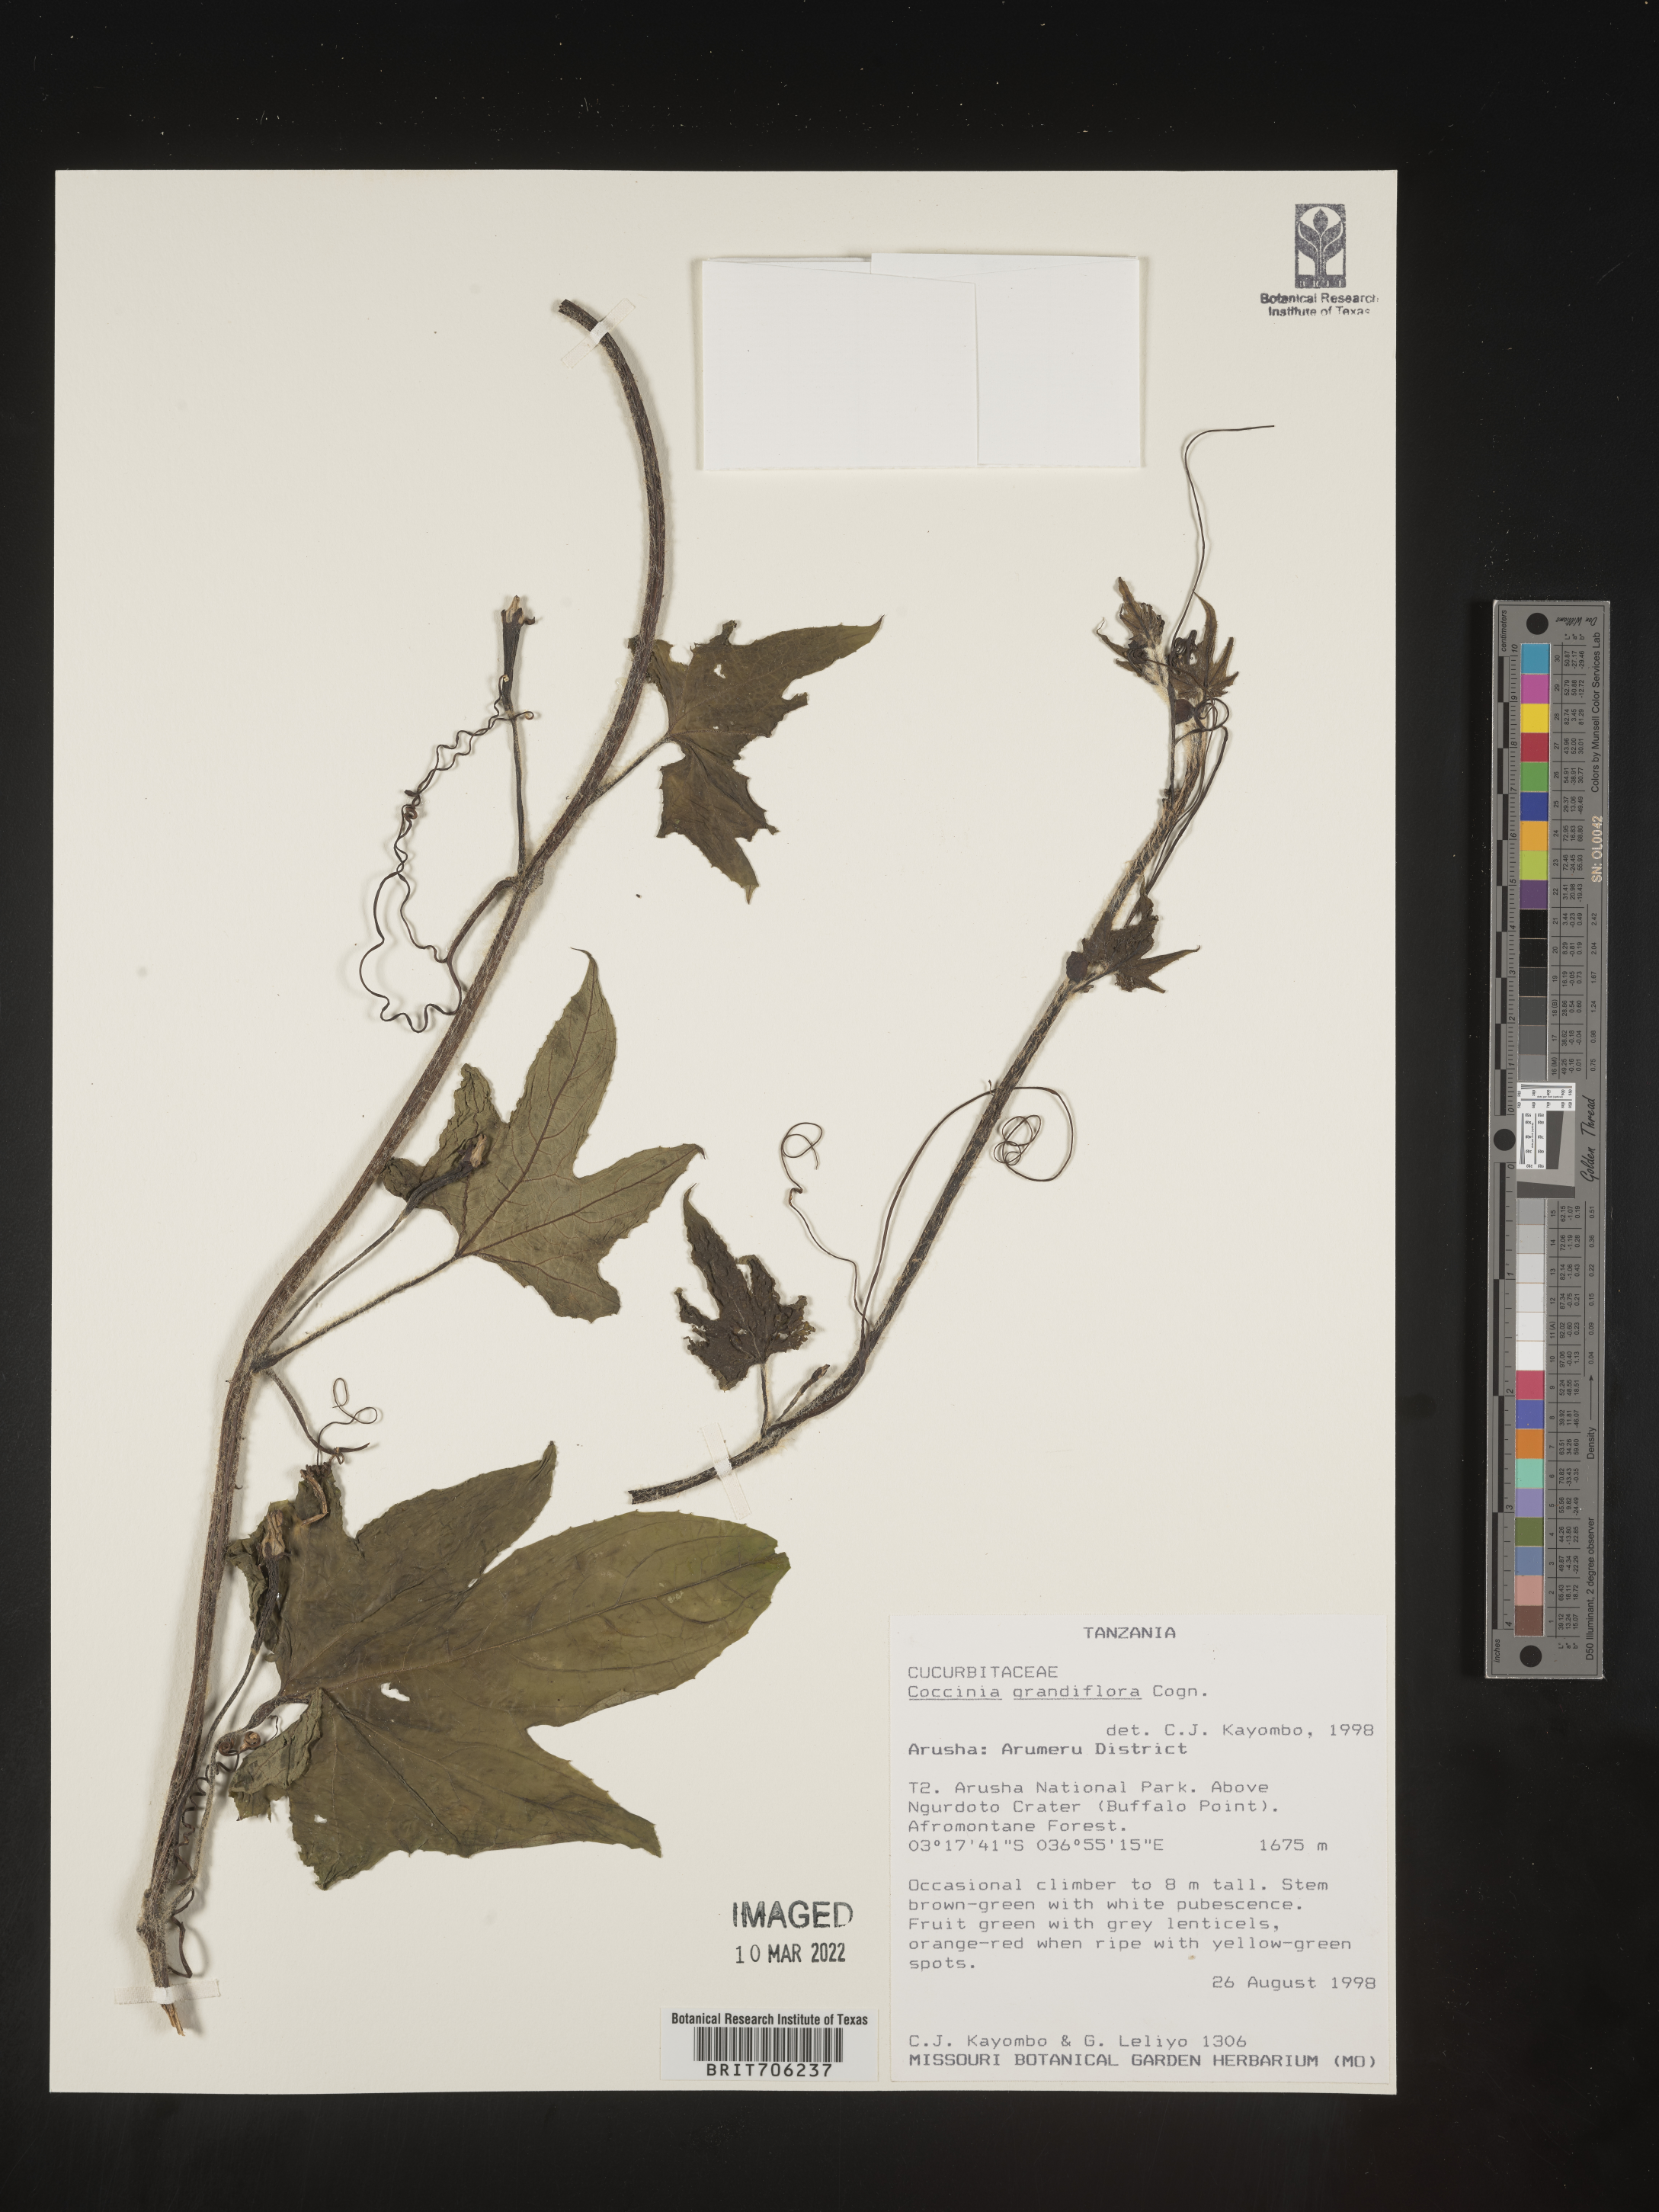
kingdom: Plantae
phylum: Tracheophyta
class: Magnoliopsida
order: Cucurbitales
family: Cucurbitaceae
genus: Coccinia
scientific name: Coccinia
